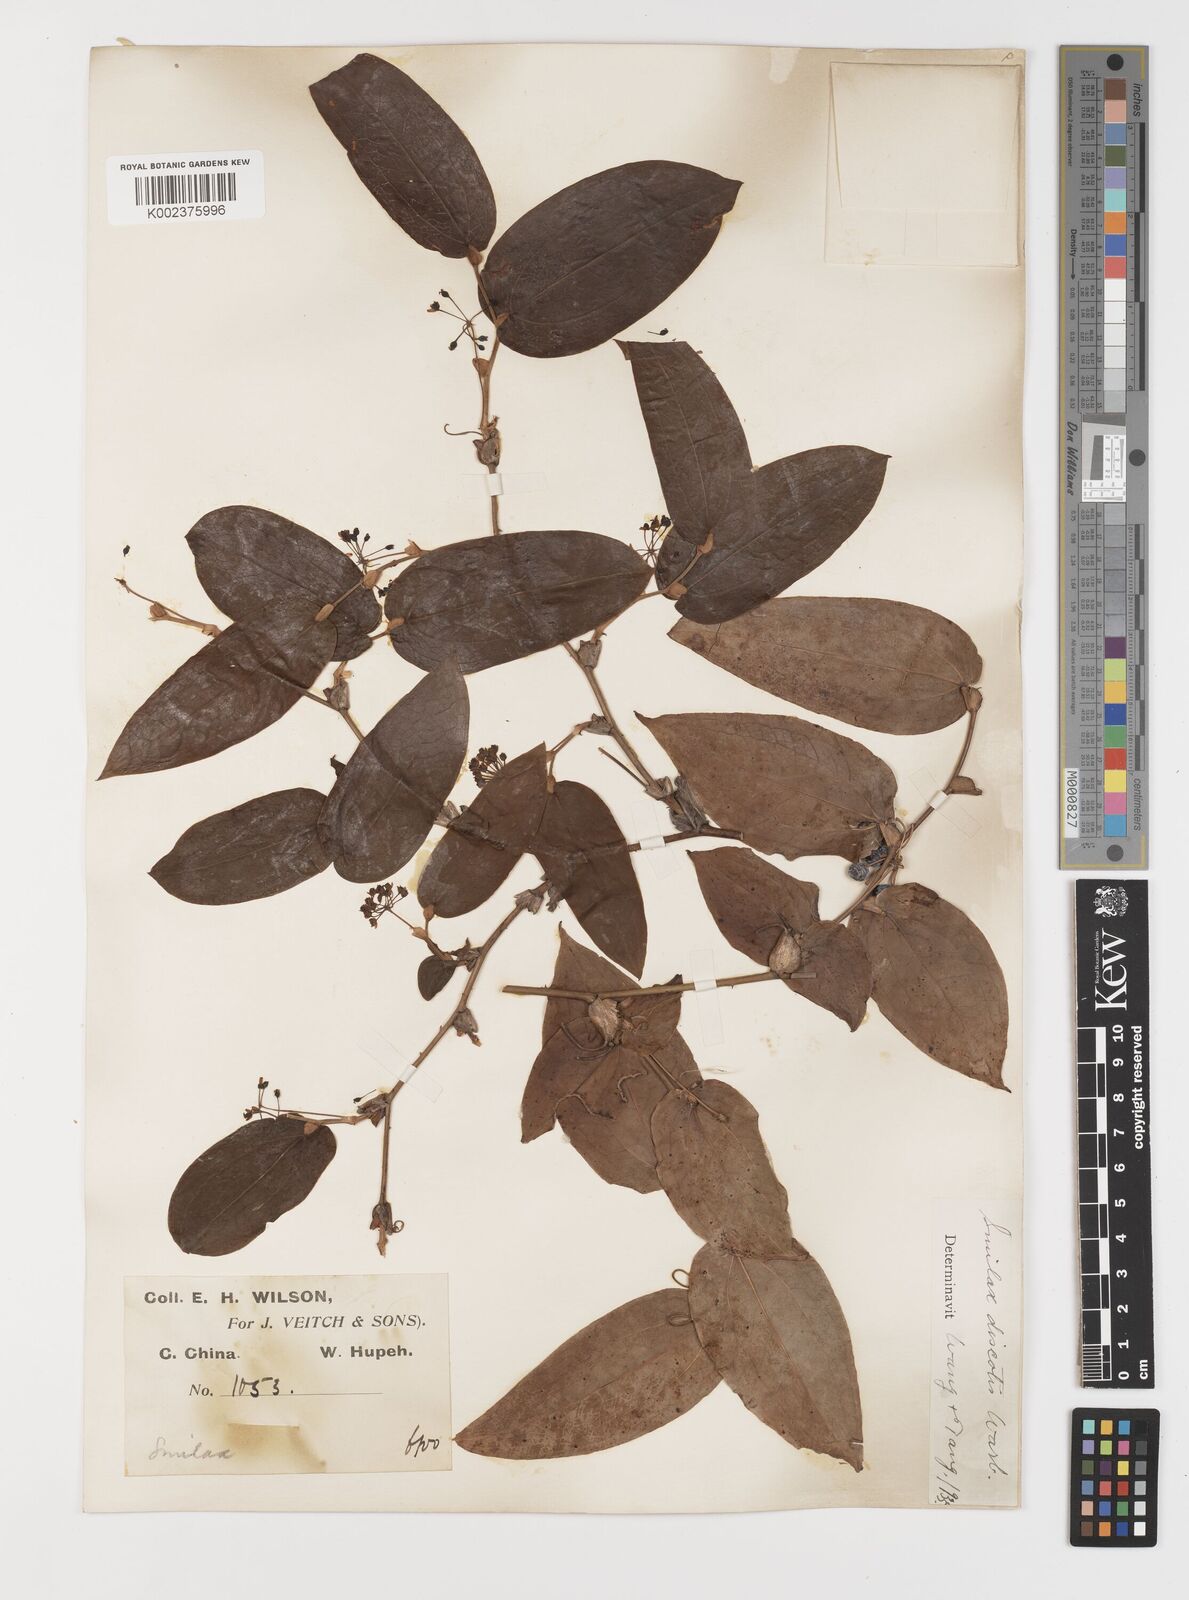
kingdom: Plantae
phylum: Tracheophyta
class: Liliopsida
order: Liliales
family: Smilacaceae
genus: Smilax
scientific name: Smilax discotis
